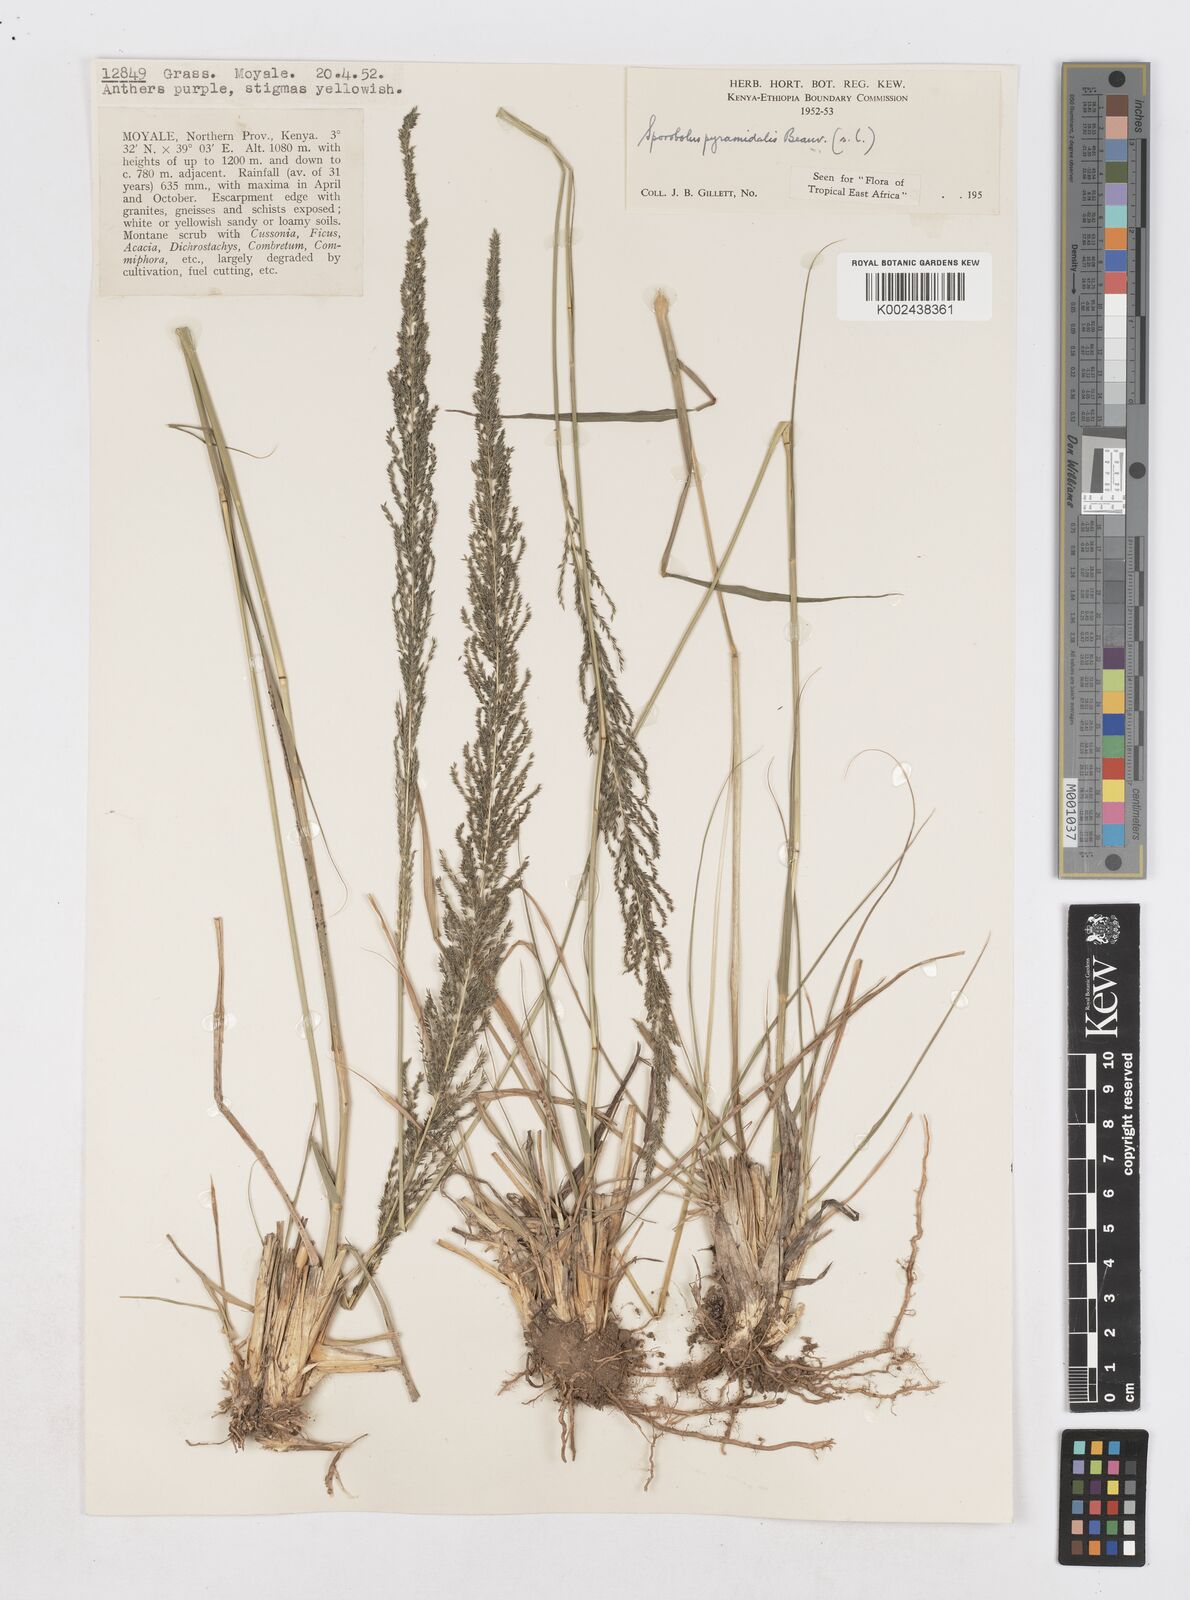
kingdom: Plantae
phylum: Tracheophyta
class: Liliopsida
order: Poales
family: Poaceae
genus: Sporobolus
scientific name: Sporobolus pyramidalis
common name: West indian dropseed
